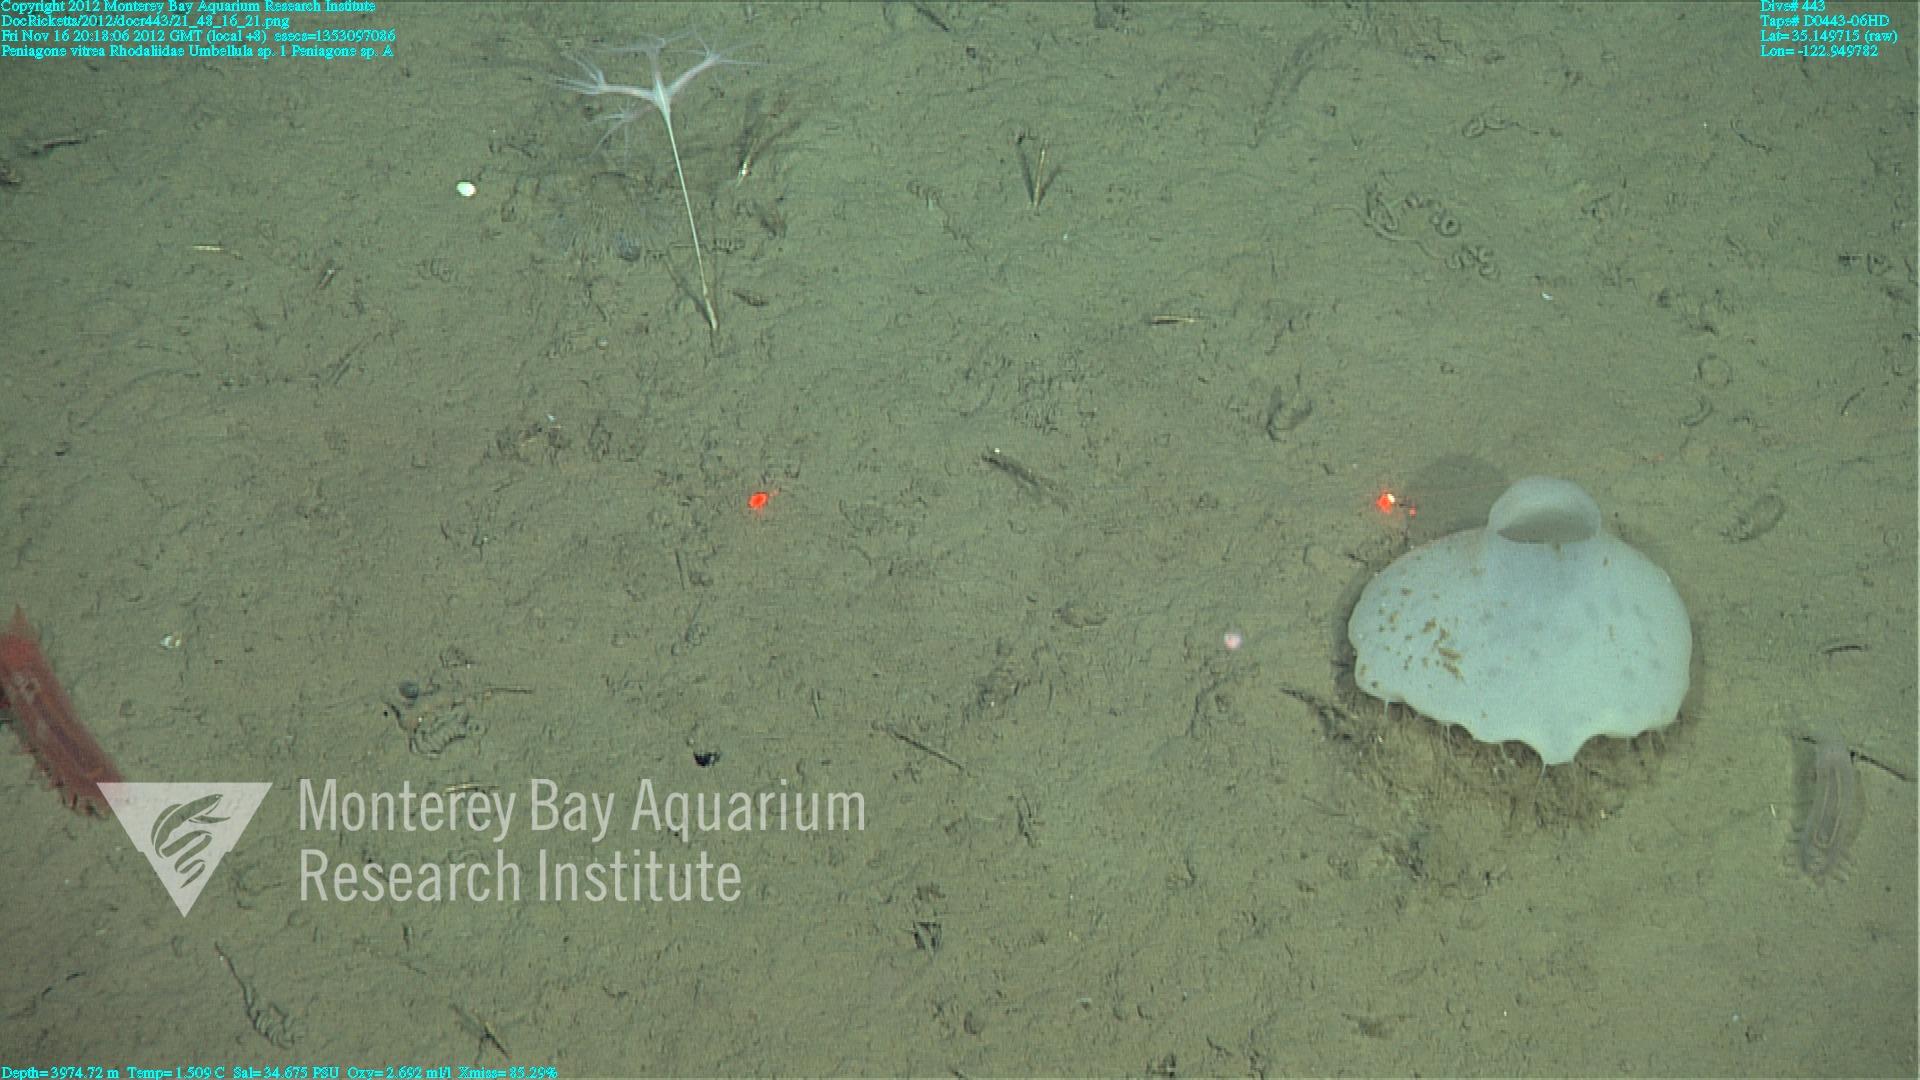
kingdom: Animalia
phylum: Cnidaria
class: Anthozoa
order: Scleralcyonacea
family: Umbellulidae
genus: Umbellula
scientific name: Umbellula
